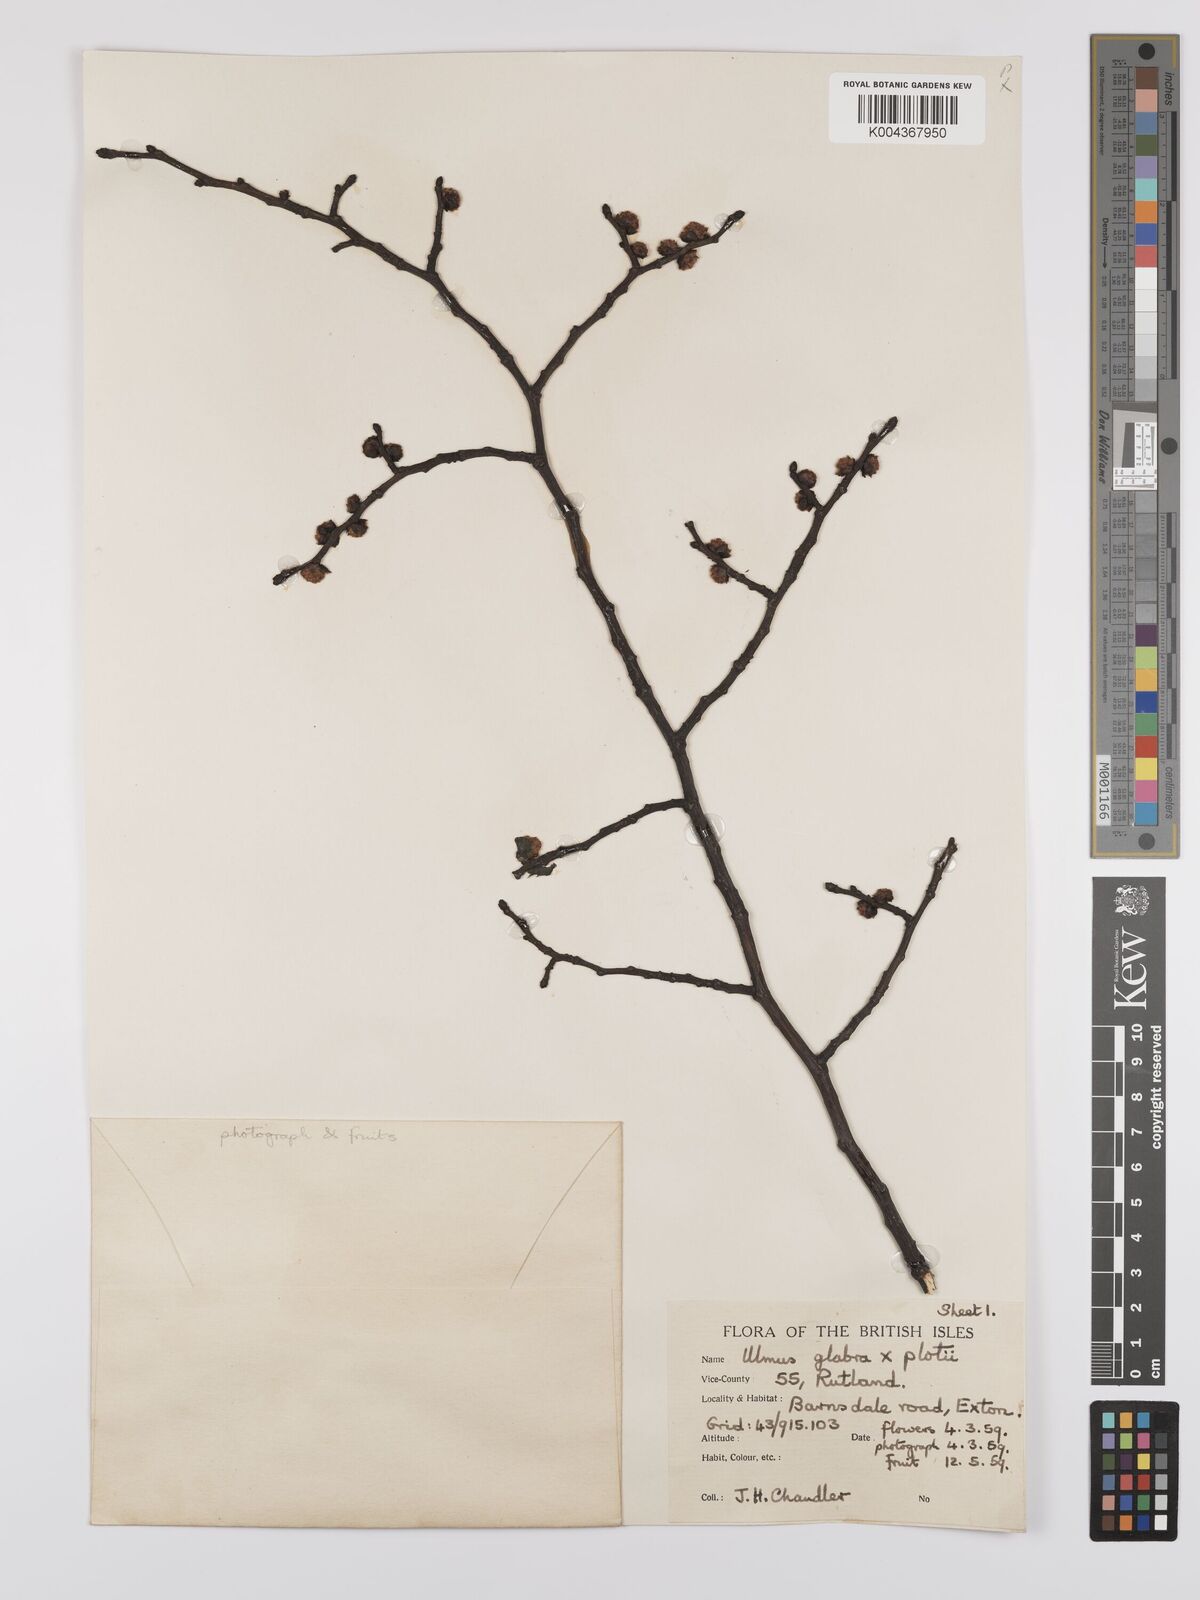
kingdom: Plantae
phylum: Tracheophyta
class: Magnoliopsida
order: Rosales
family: Ulmaceae
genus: Ulmus
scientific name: Ulmus glabra
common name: Wych elm
